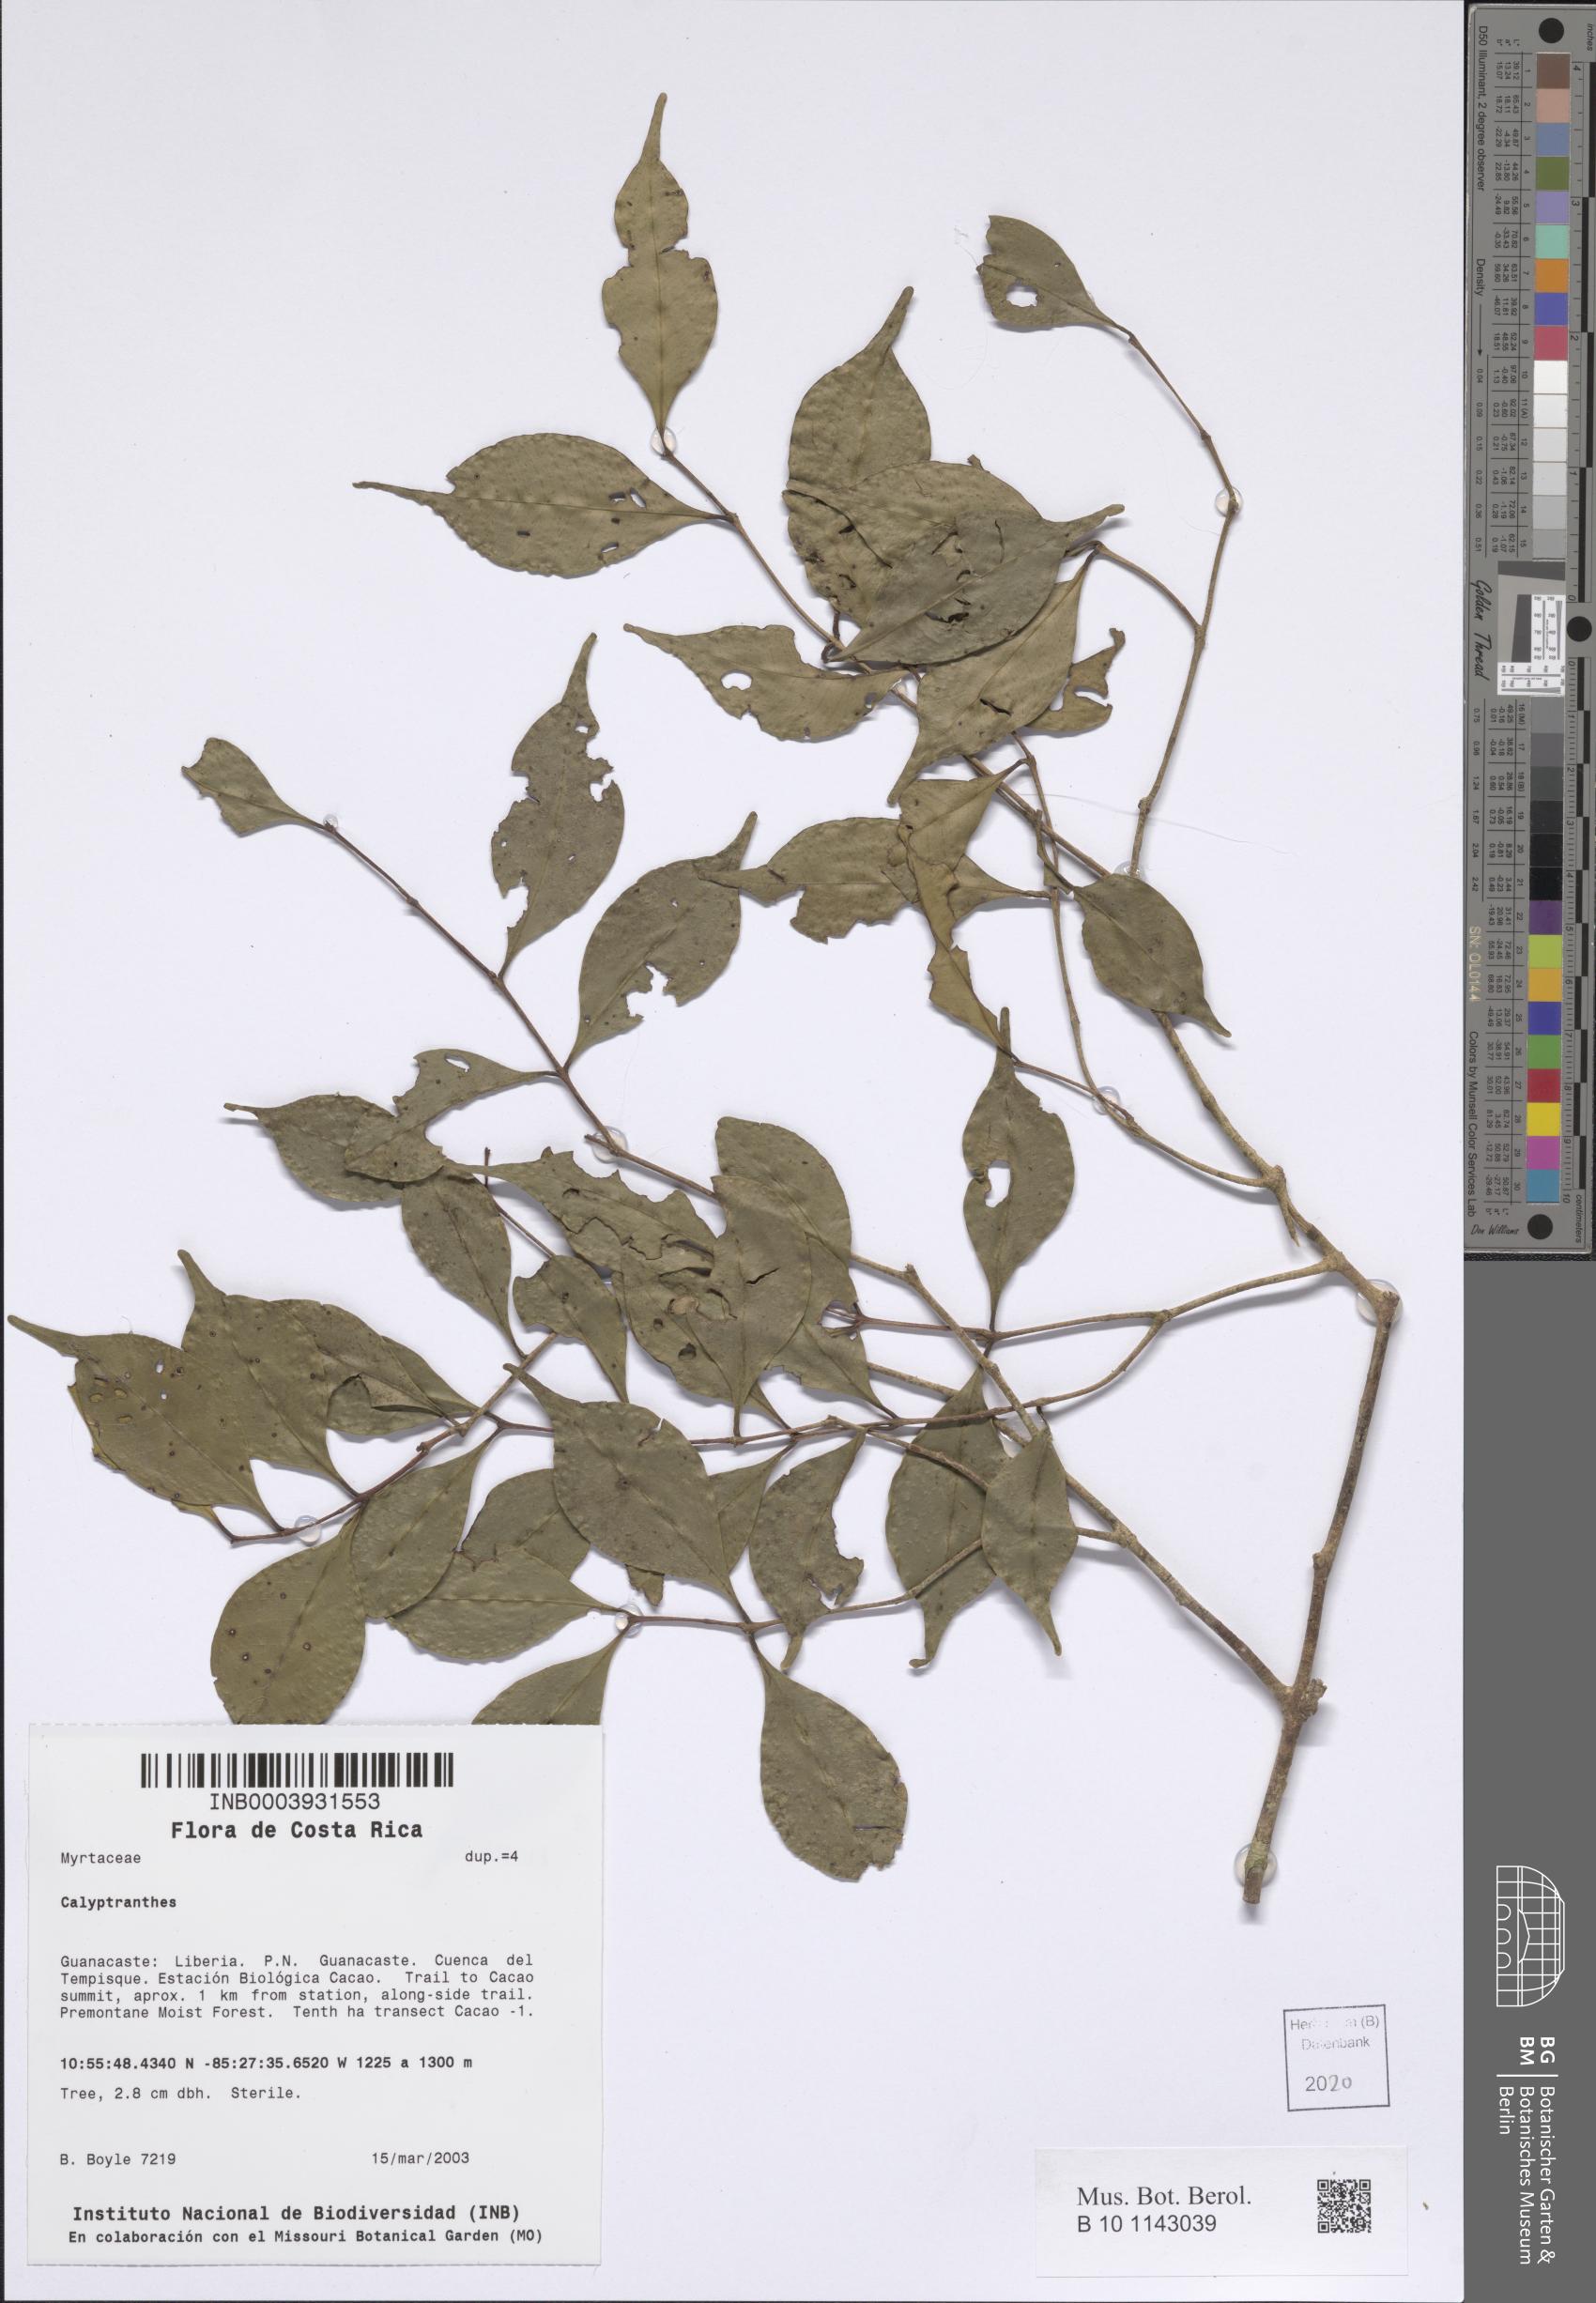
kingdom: Plantae
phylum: Tracheophyta
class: Magnoliopsida
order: Myrtales
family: Myrtaceae
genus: Calyptranthes
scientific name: Calyptranthes
